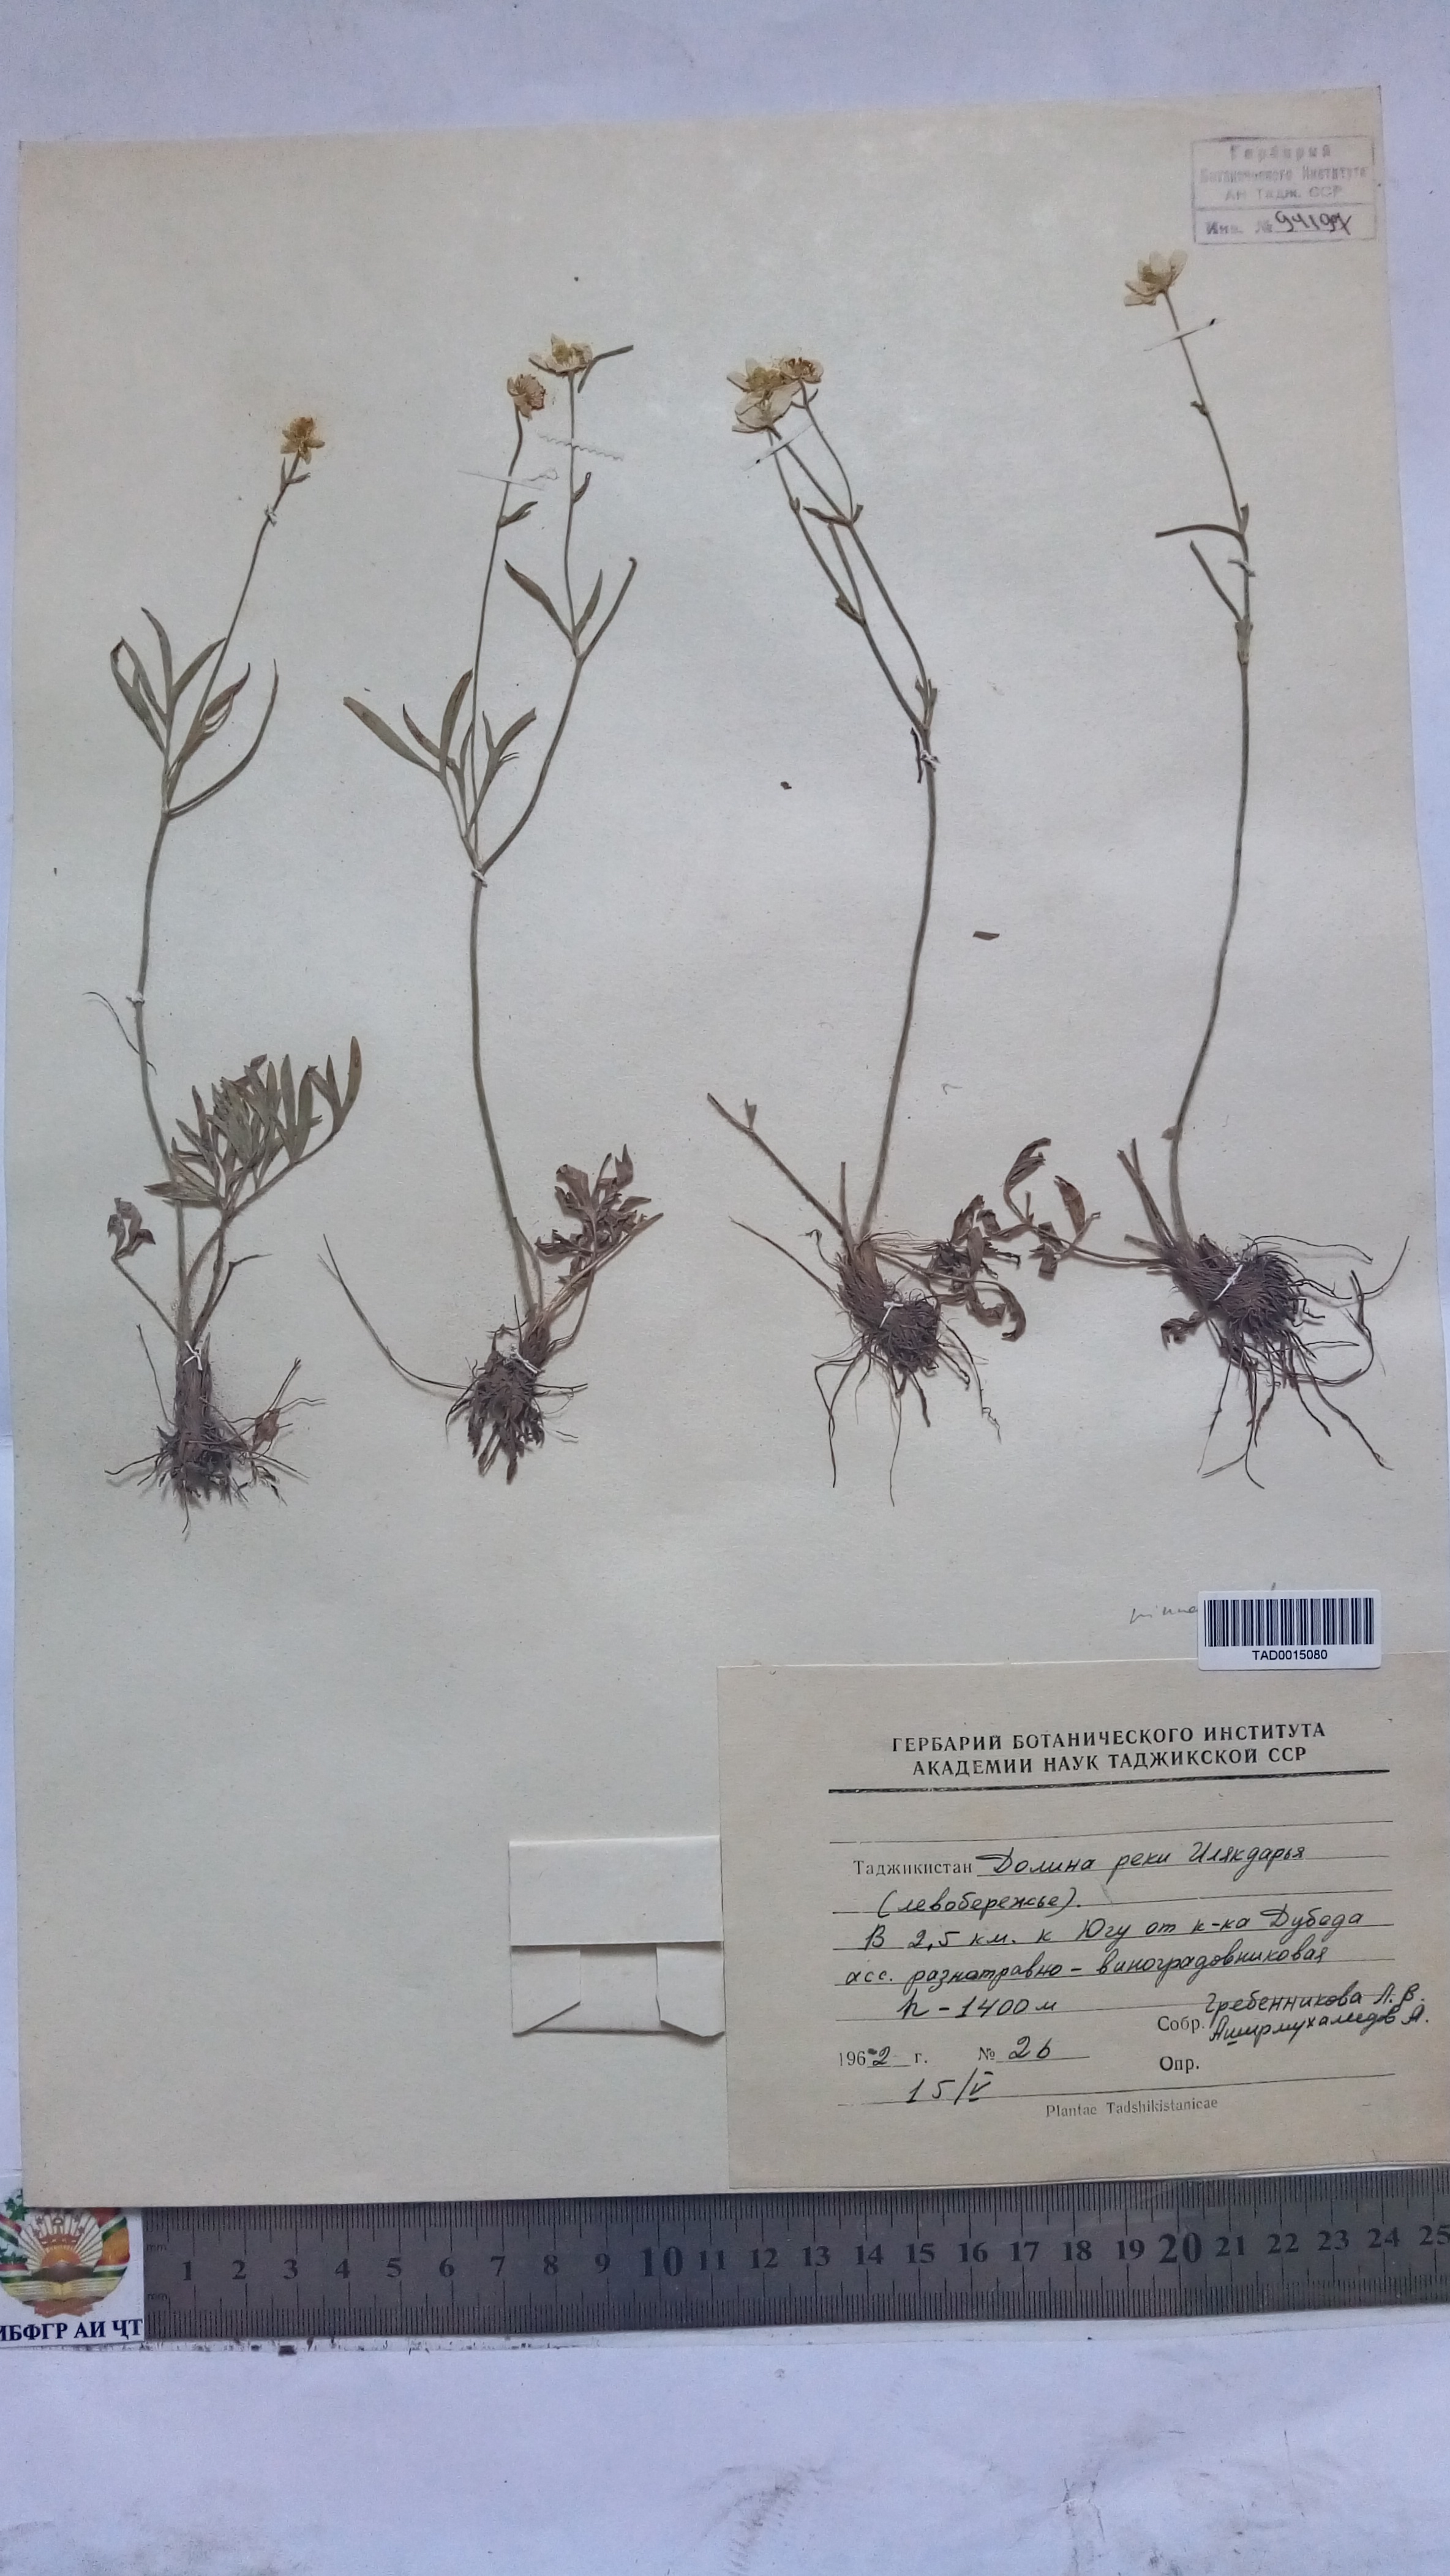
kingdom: Plantae
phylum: Tracheophyta
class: Magnoliopsida
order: Ranunculales
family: Ranunculaceae
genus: Ranunculus
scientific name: Ranunculus pinnatisectus
